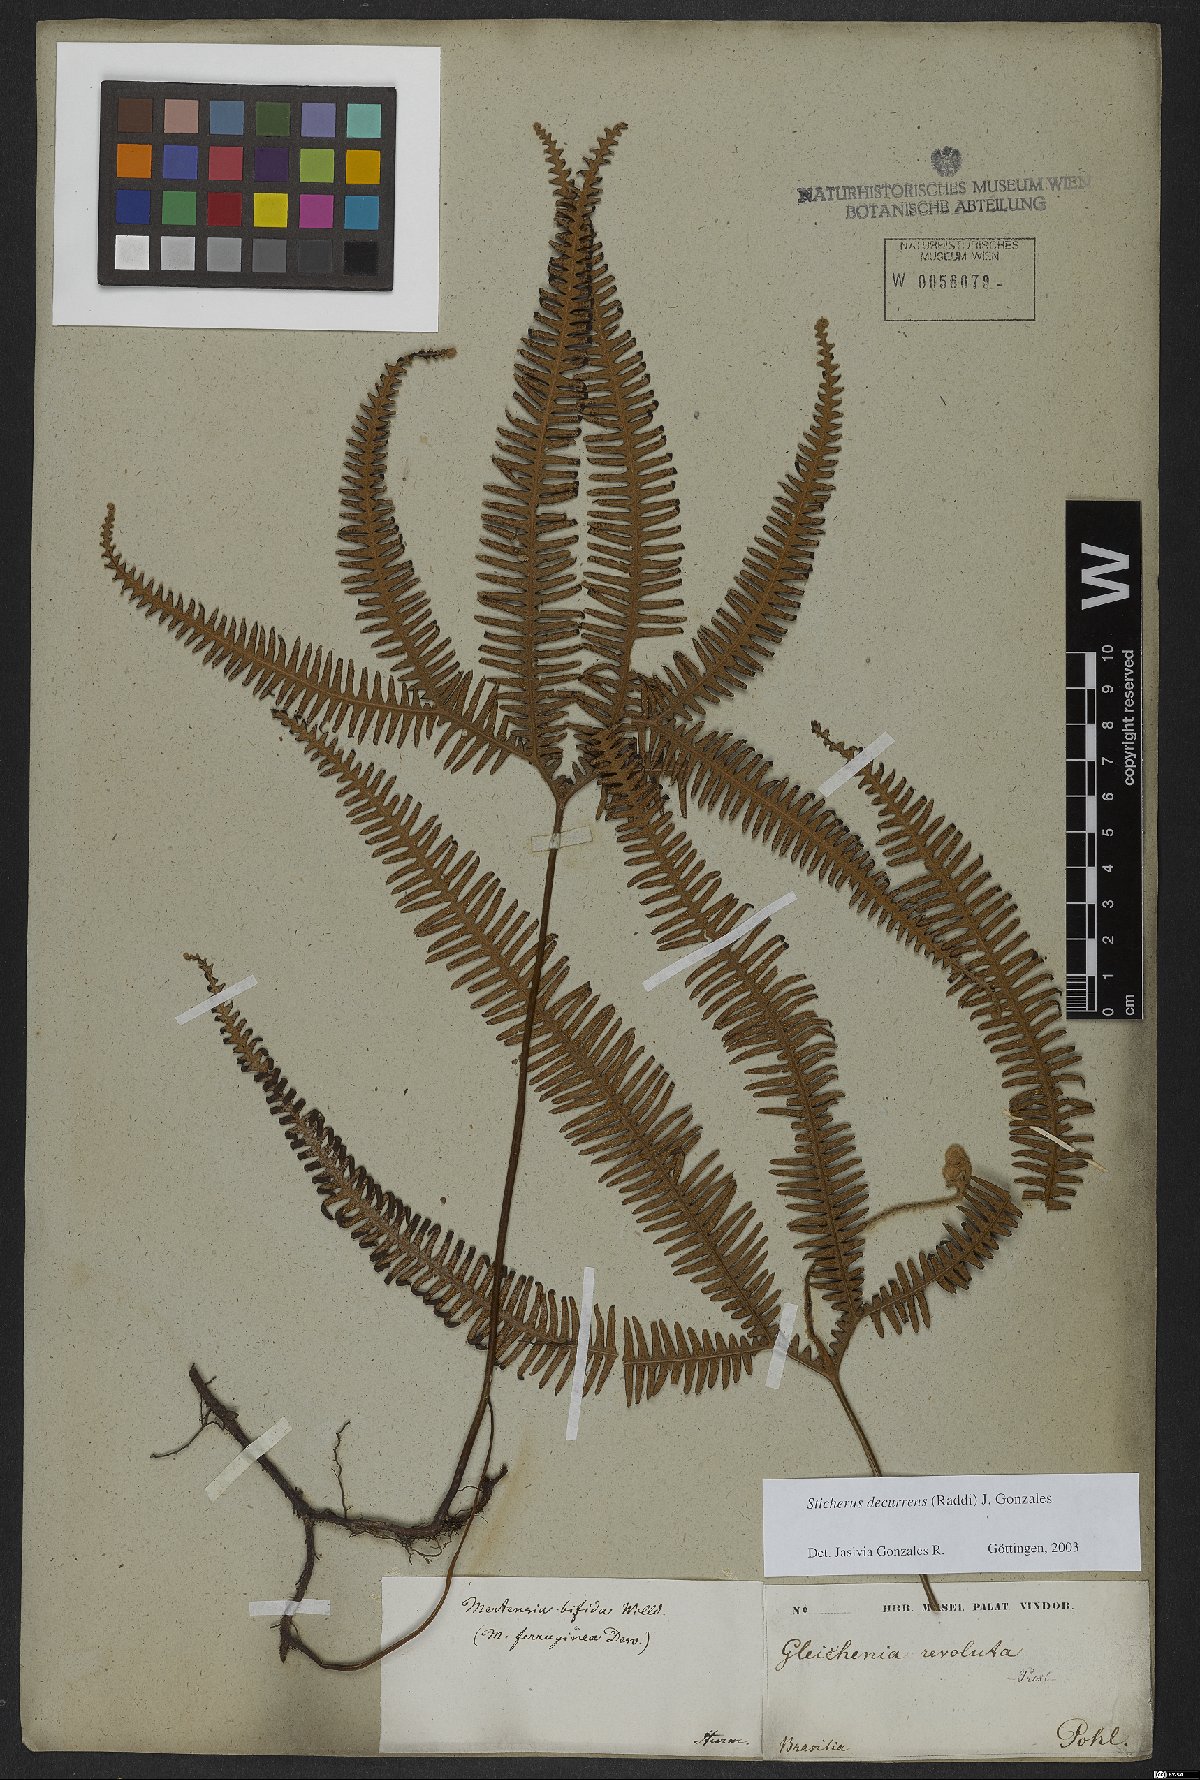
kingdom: Plantae
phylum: Tracheophyta
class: Polypodiopsida
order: Gleicheniales
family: Gleicheniaceae
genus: Sticherus
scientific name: Sticherus decurrens
